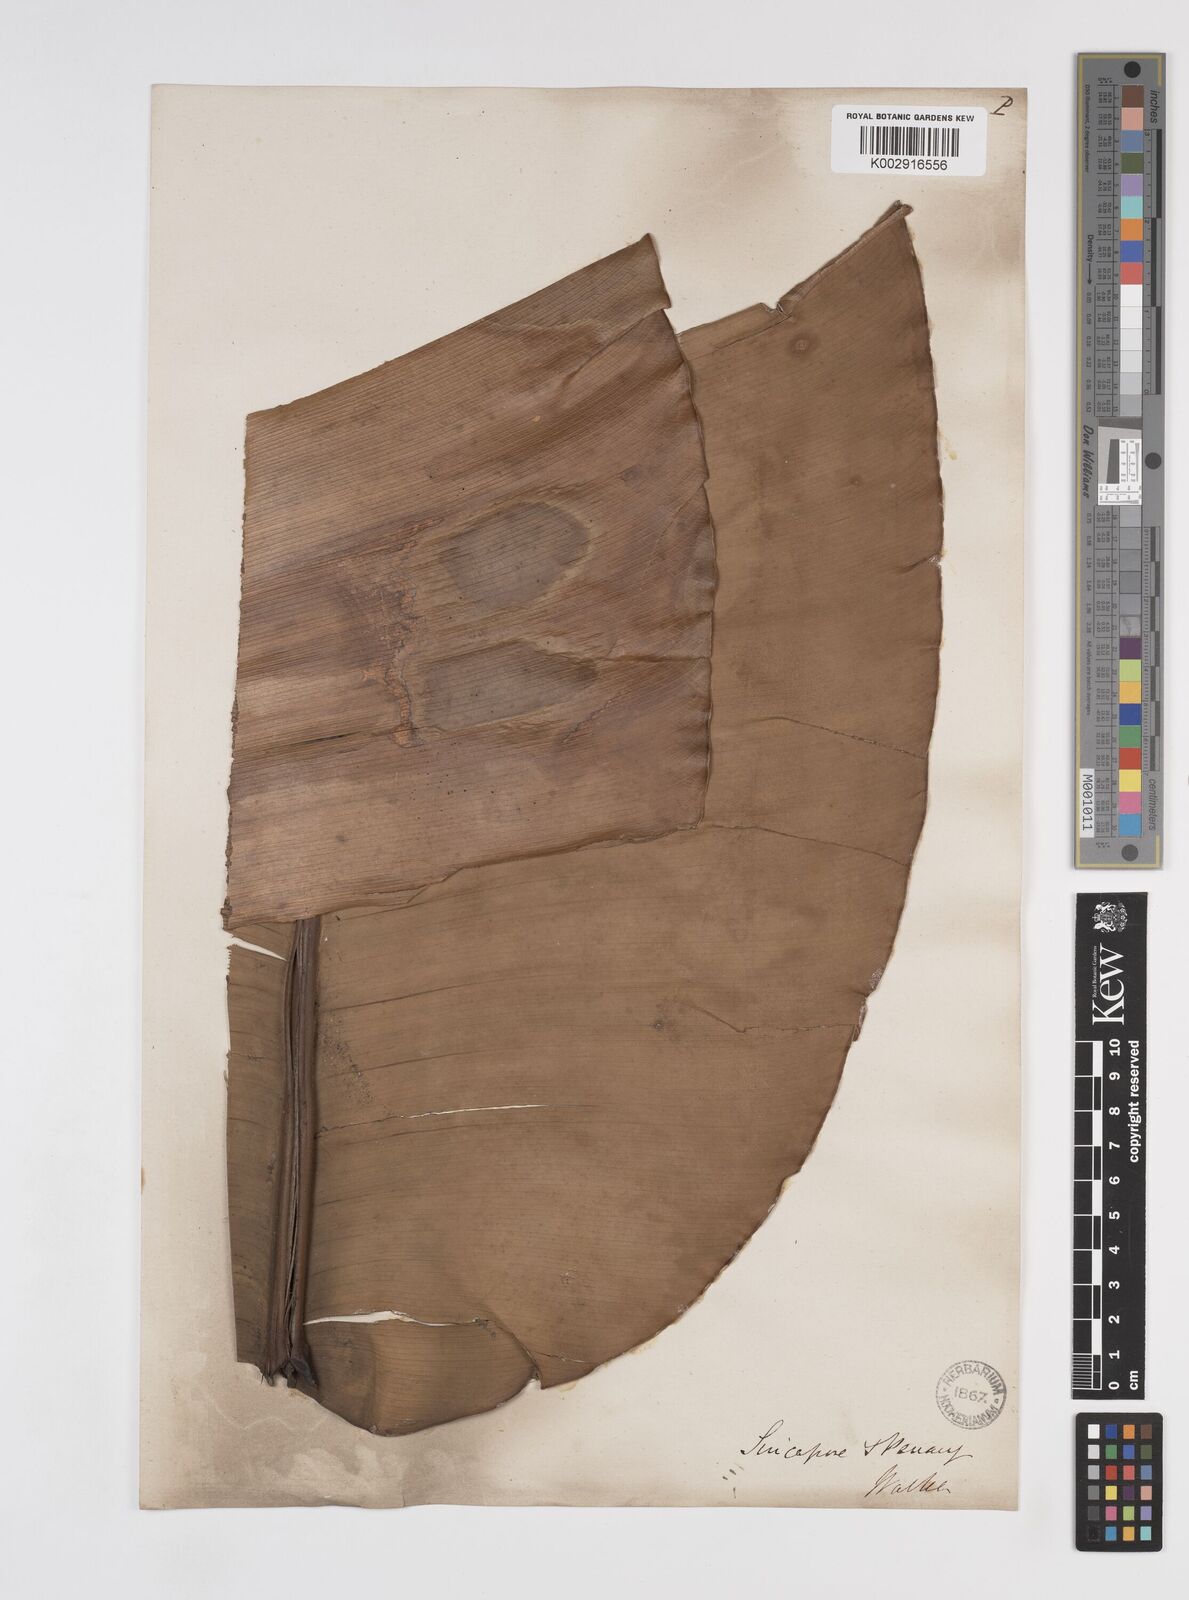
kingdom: Plantae
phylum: Tracheophyta
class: Liliopsida
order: Zingiberales
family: Strelitziaceae
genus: Ravenala
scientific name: Ravenala
